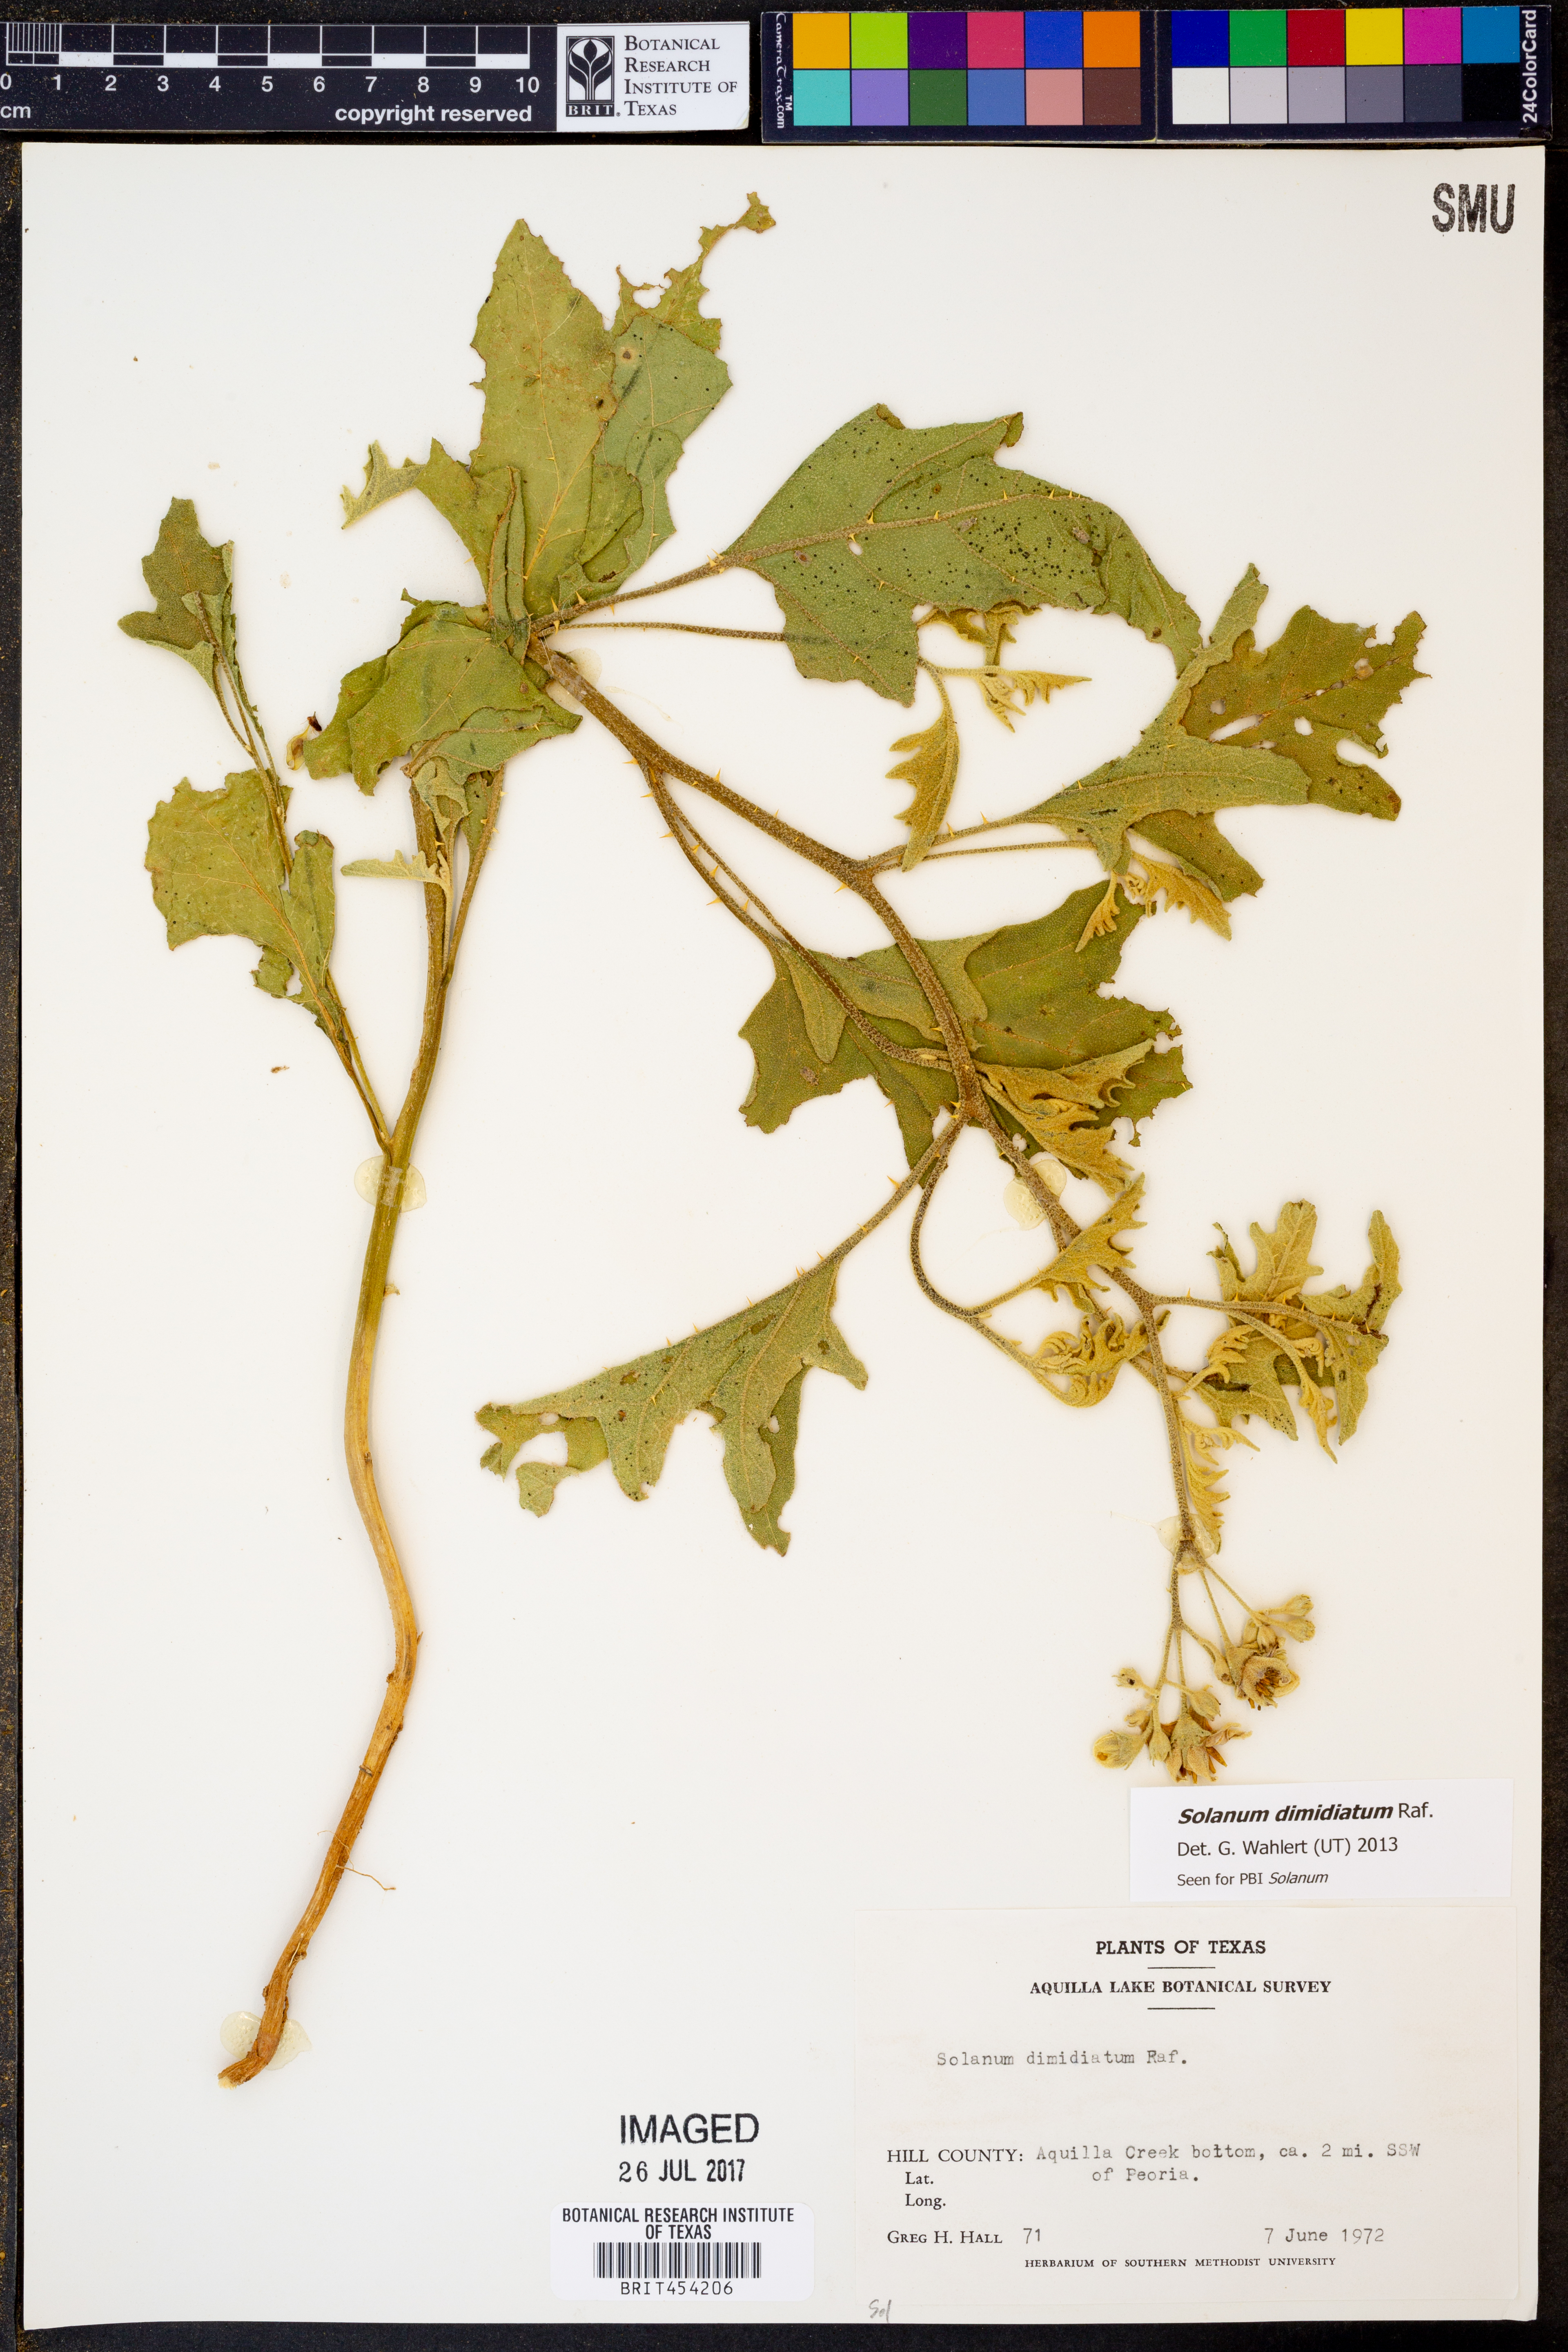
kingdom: Plantae
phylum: Tracheophyta
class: Magnoliopsida
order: Solanales
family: Solanaceae
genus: Solanum
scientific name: Solanum dimidiatum
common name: Carolina horse-nettle
